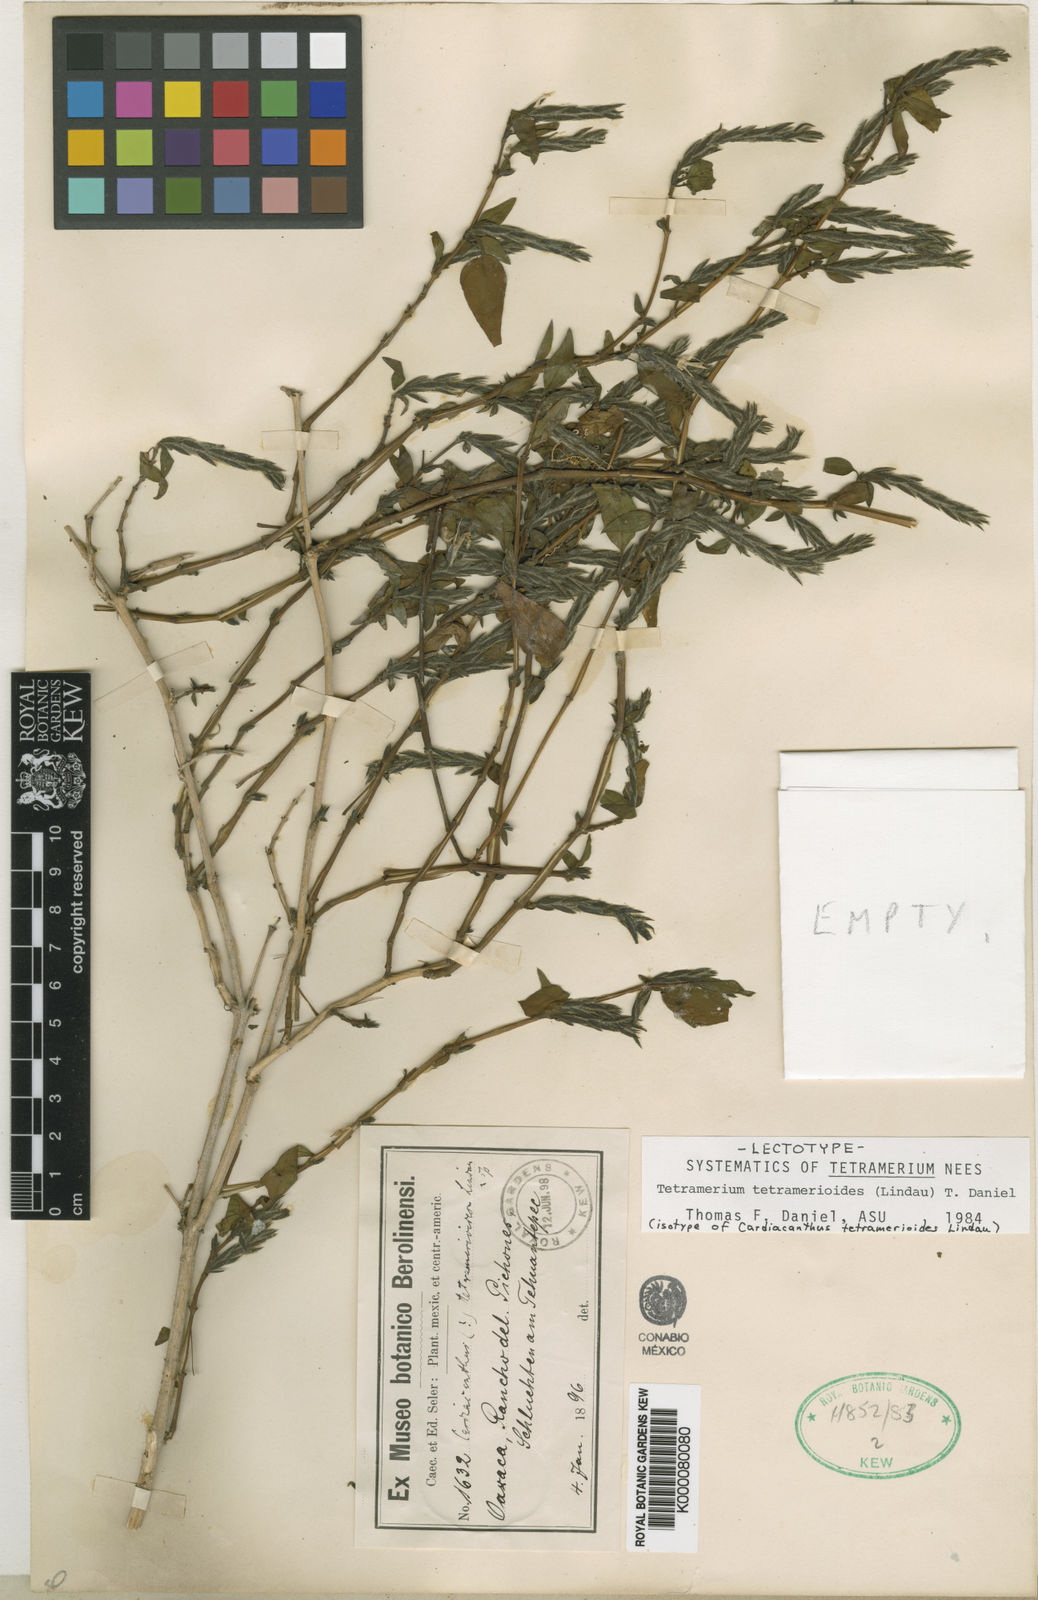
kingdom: Plantae
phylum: Tracheophyta
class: Magnoliopsida
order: Lamiales
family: Acanthaceae
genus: Tetramerium
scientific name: Tetramerium tetramerioides
